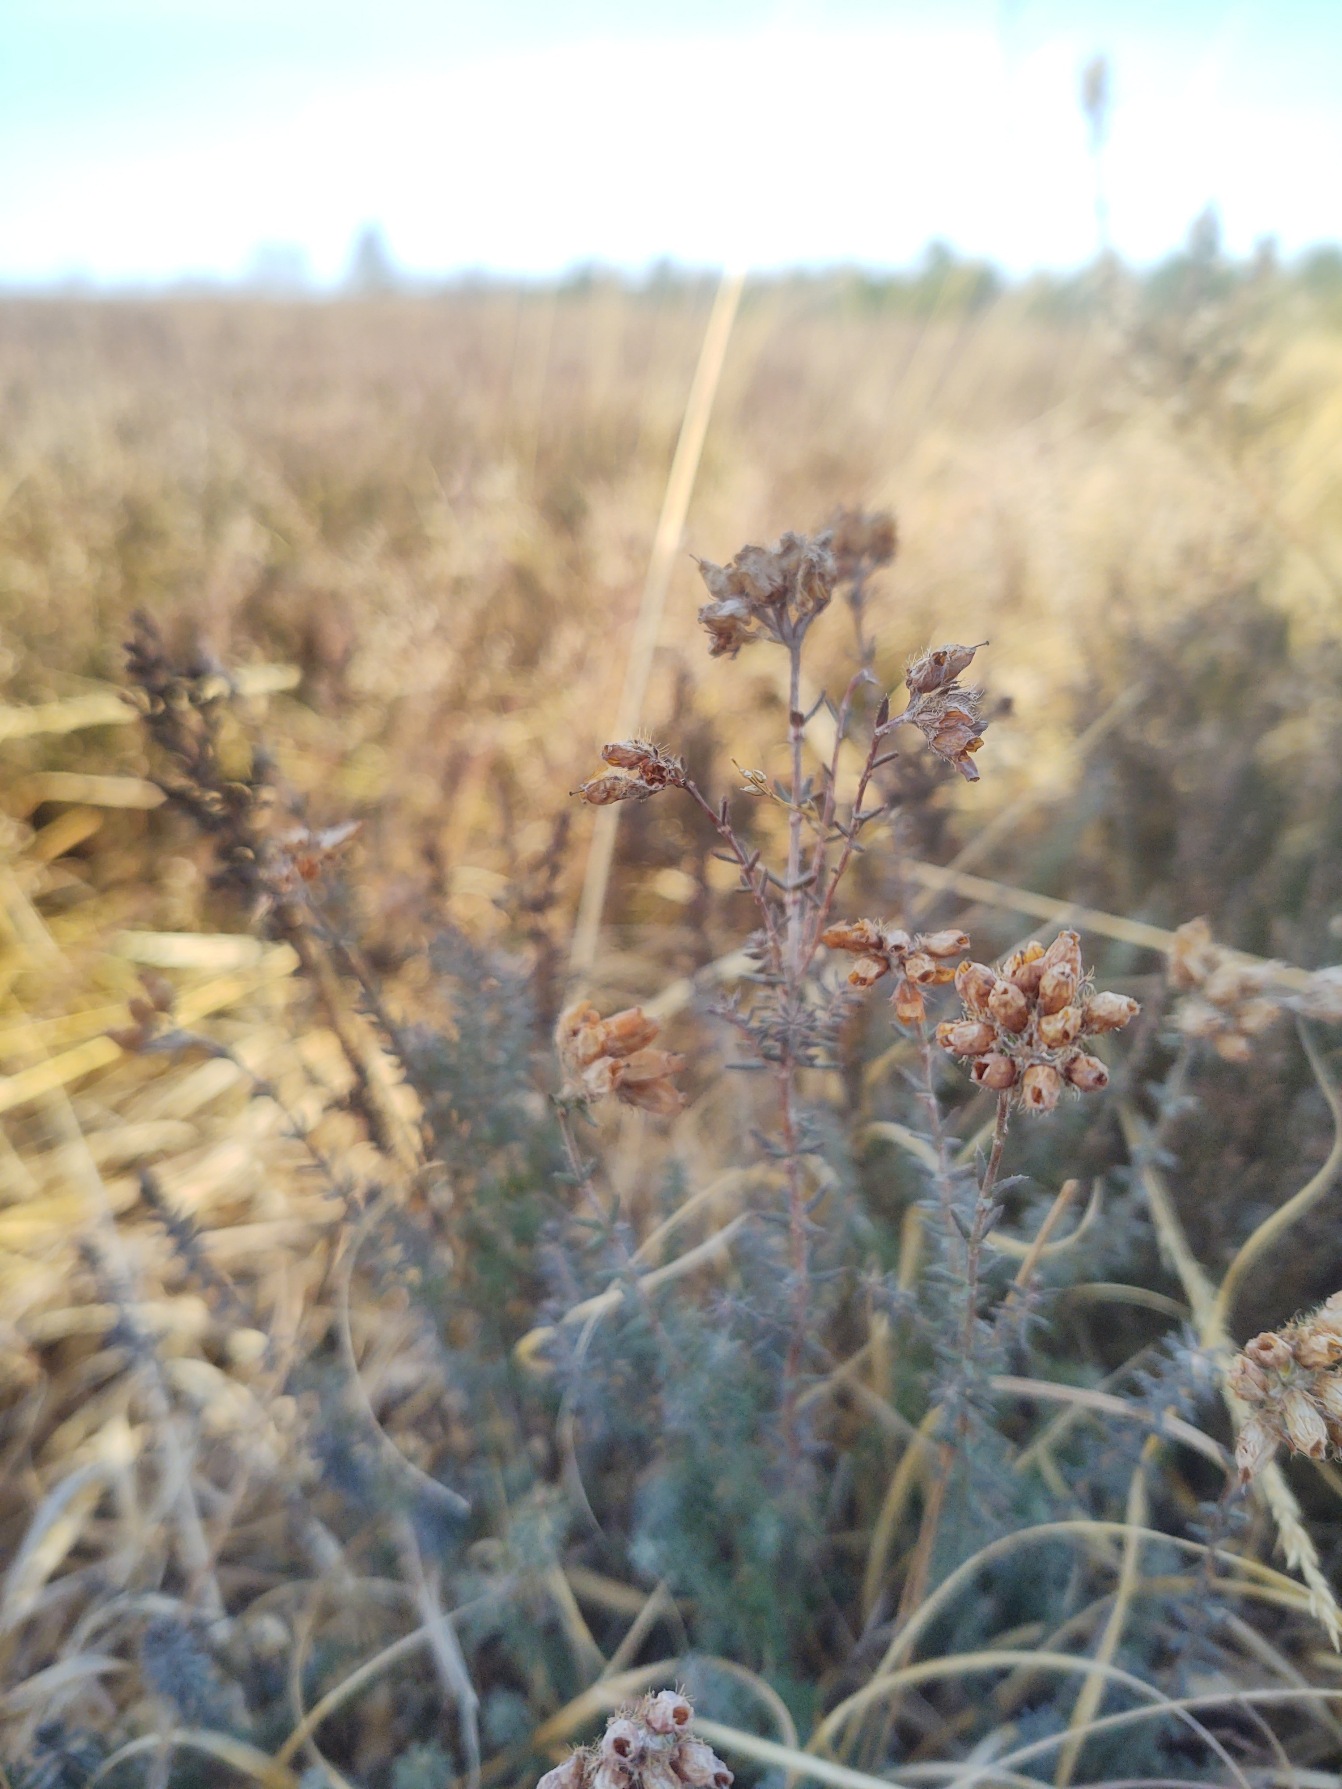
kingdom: Plantae
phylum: Tracheophyta
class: Magnoliopsida
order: Ericales
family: Ericaceae
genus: Erica
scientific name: Erica tetralix
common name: Klokkelyng
